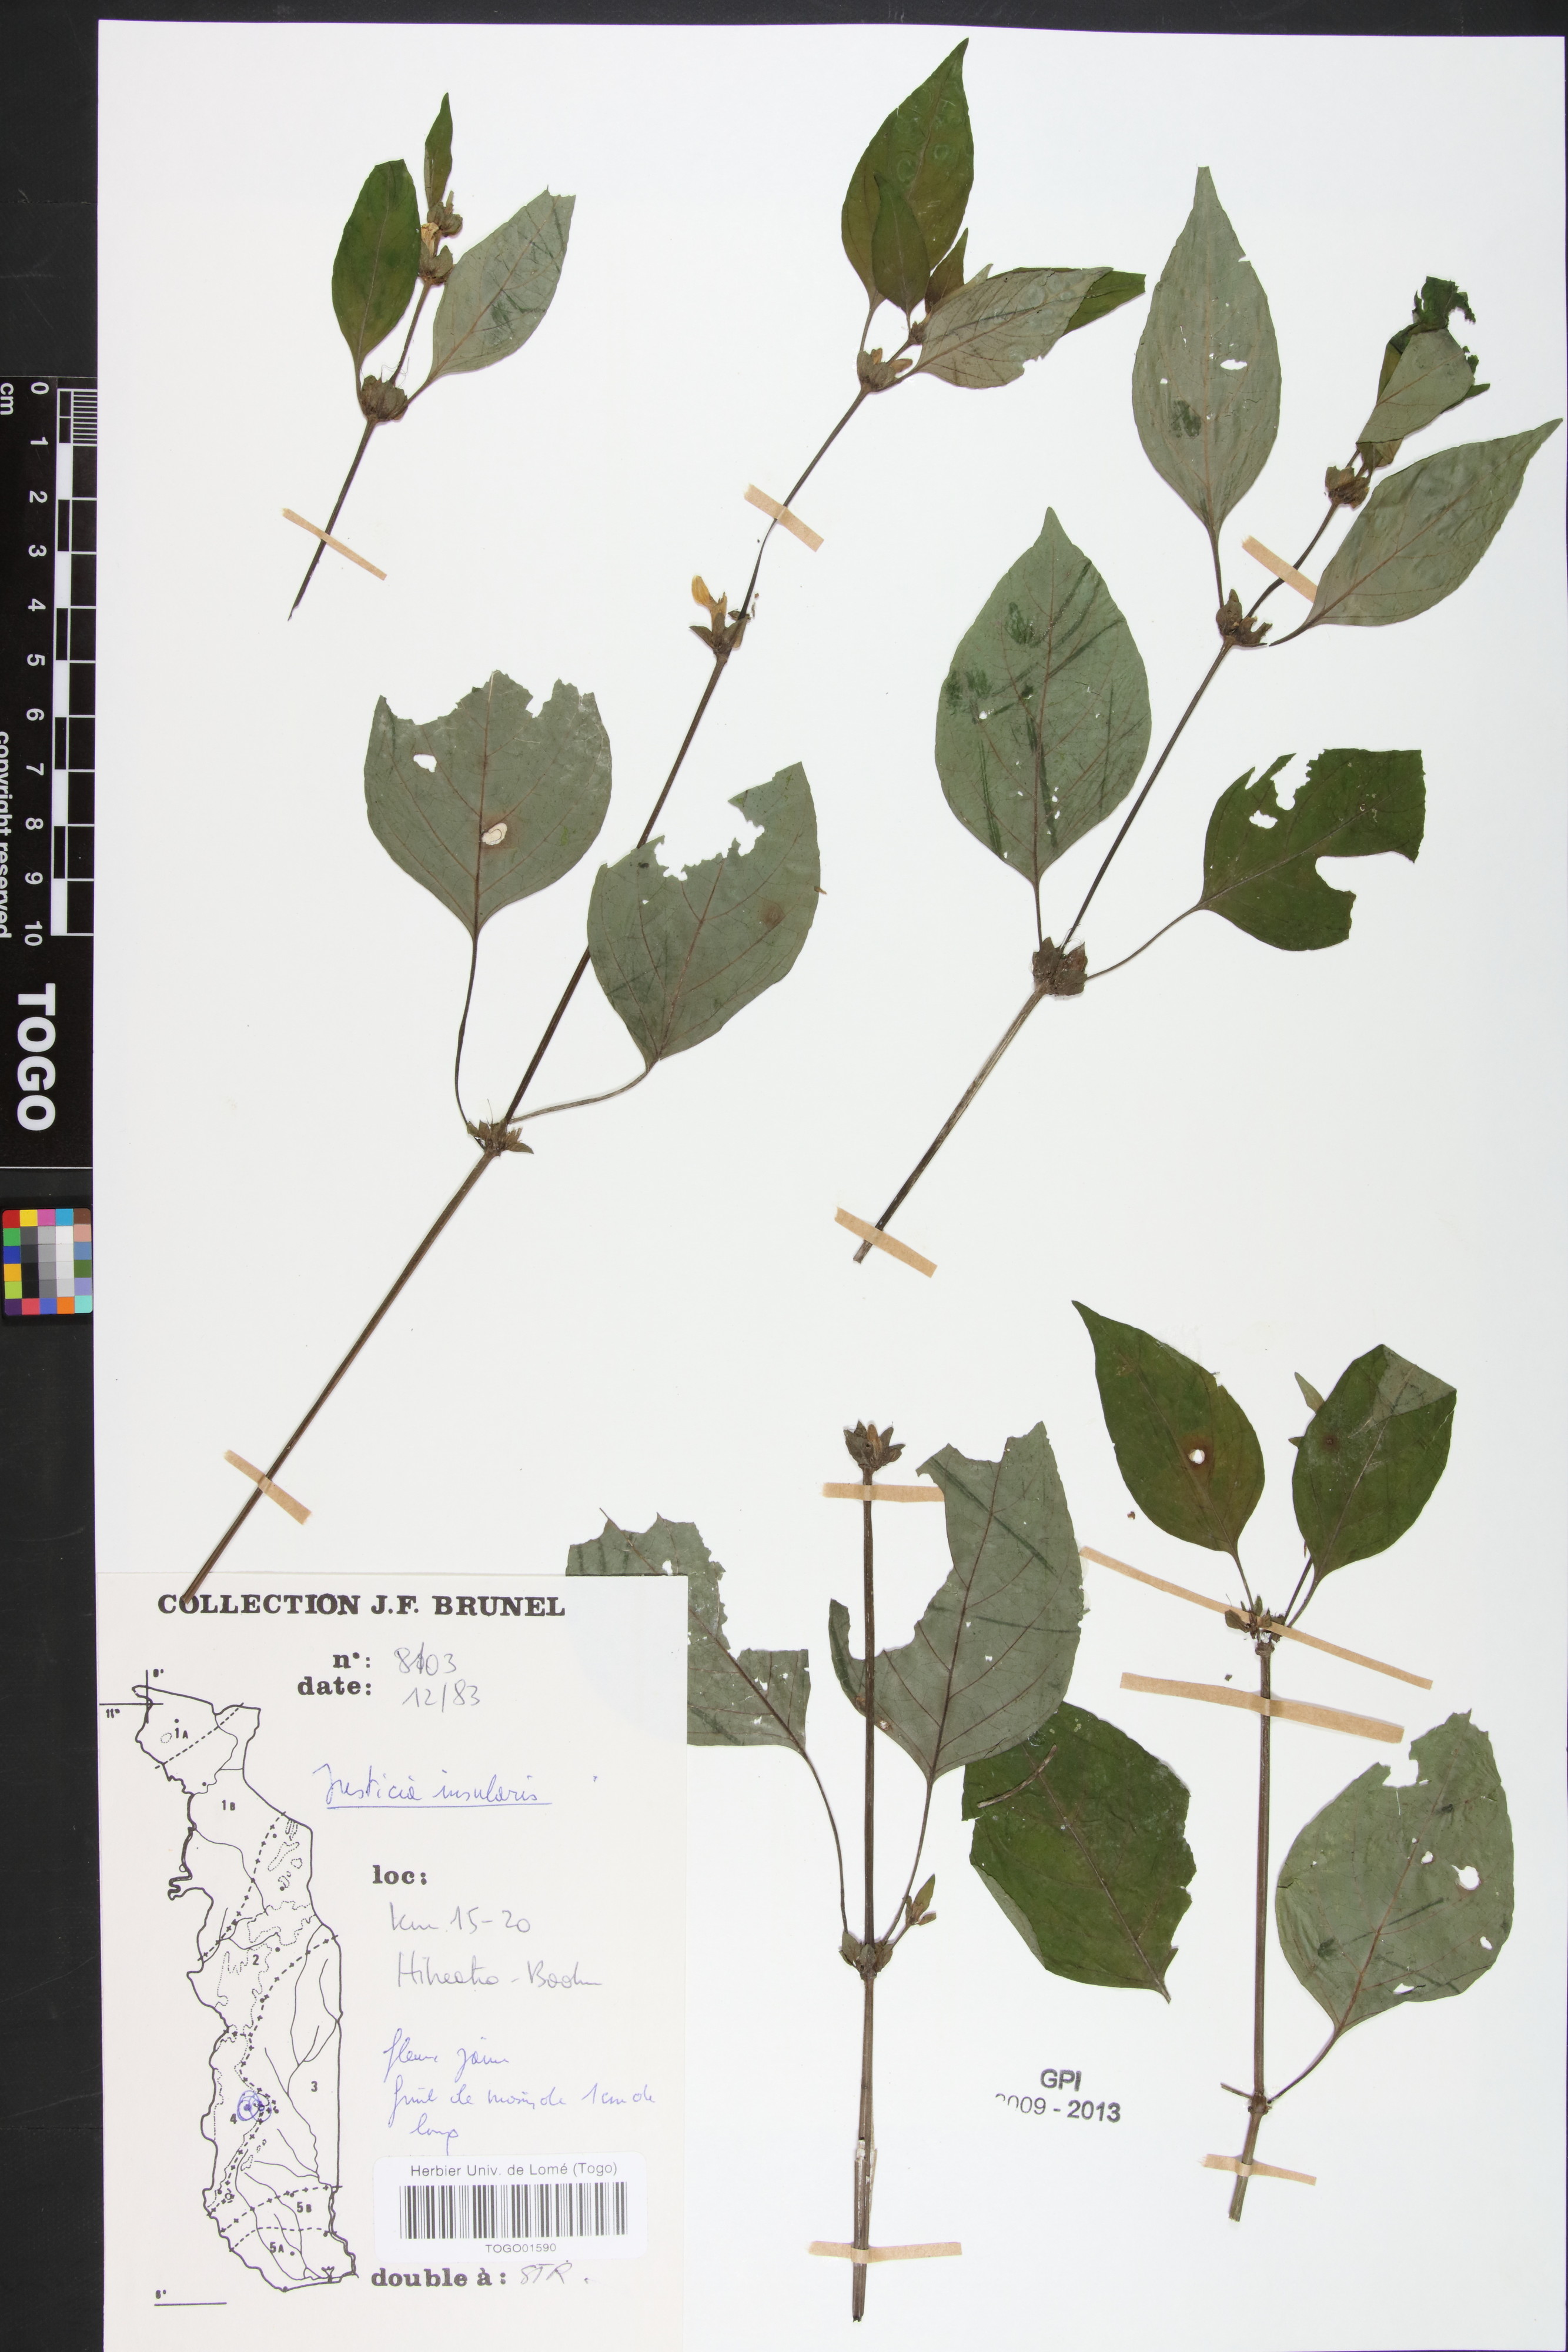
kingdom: Plantae
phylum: Tracheophyta
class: Magnoliopsida
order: Lamiales
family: Acanthaceae
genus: Justicia
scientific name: Justicia insularis
